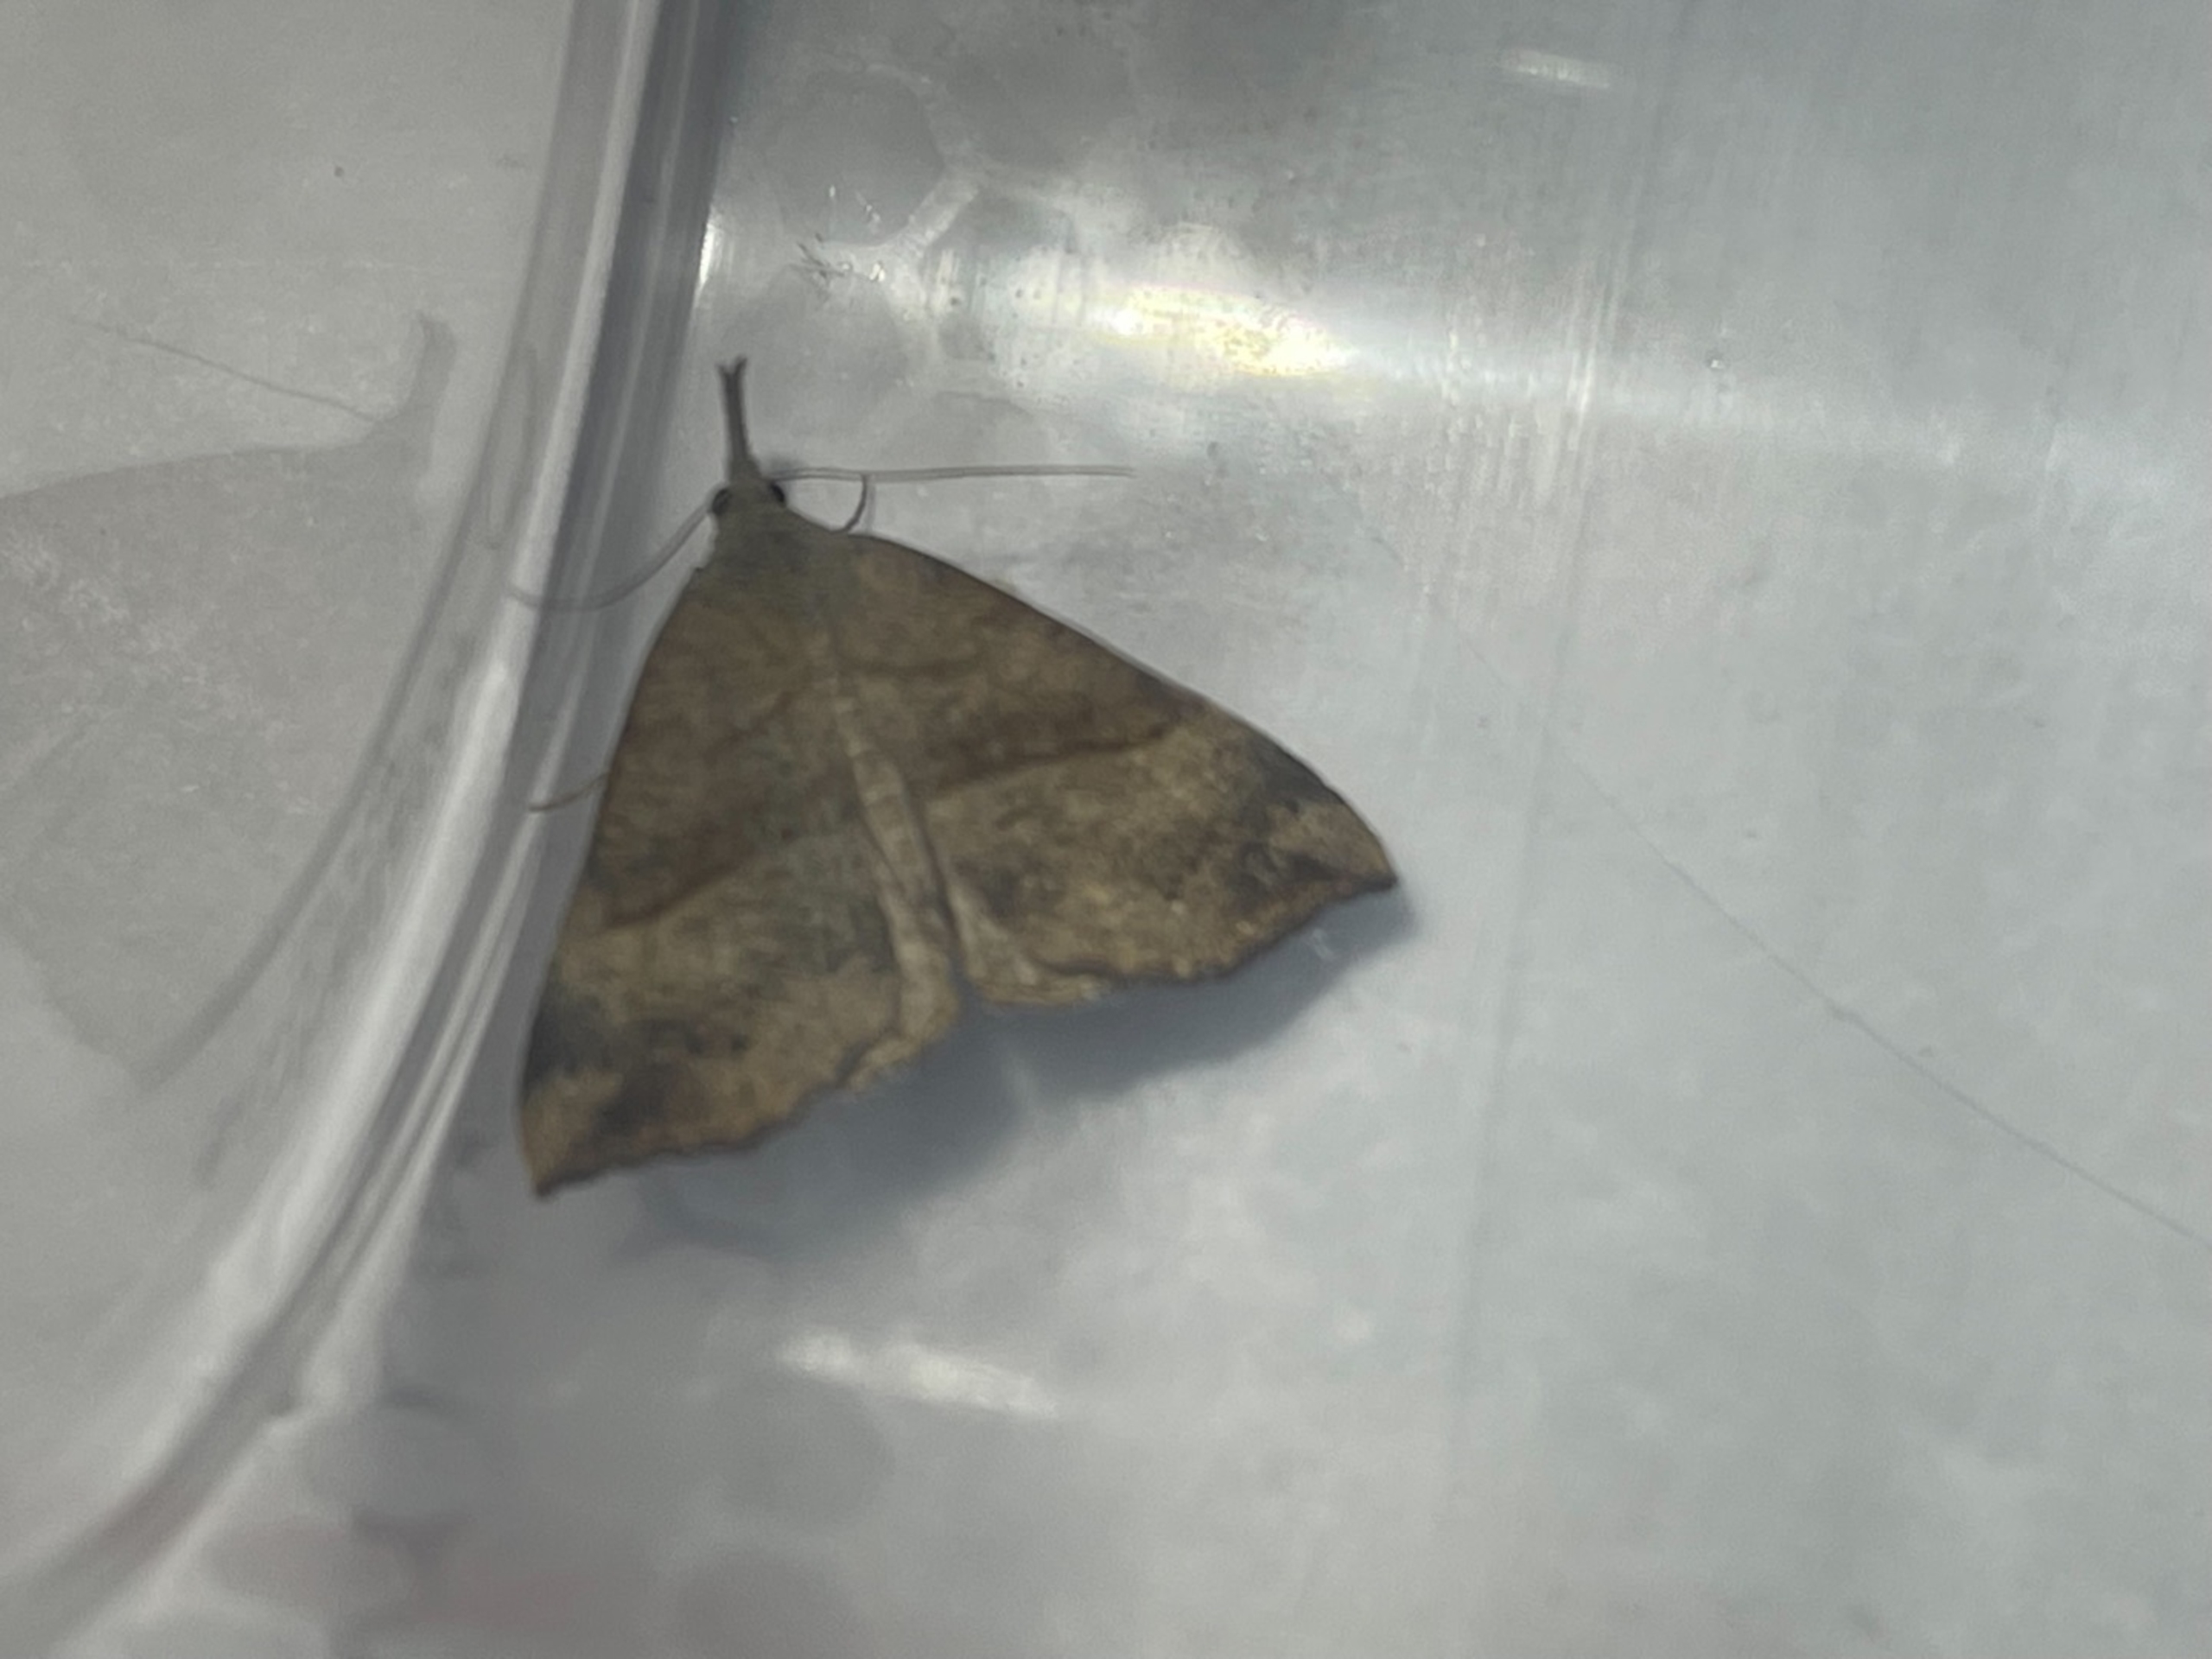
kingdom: Animalia
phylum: Arthropoda
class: Insecta
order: Lepidoptera
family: Erebidae
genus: Hypena
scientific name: Hypena proboscidalis
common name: Snudeugle
